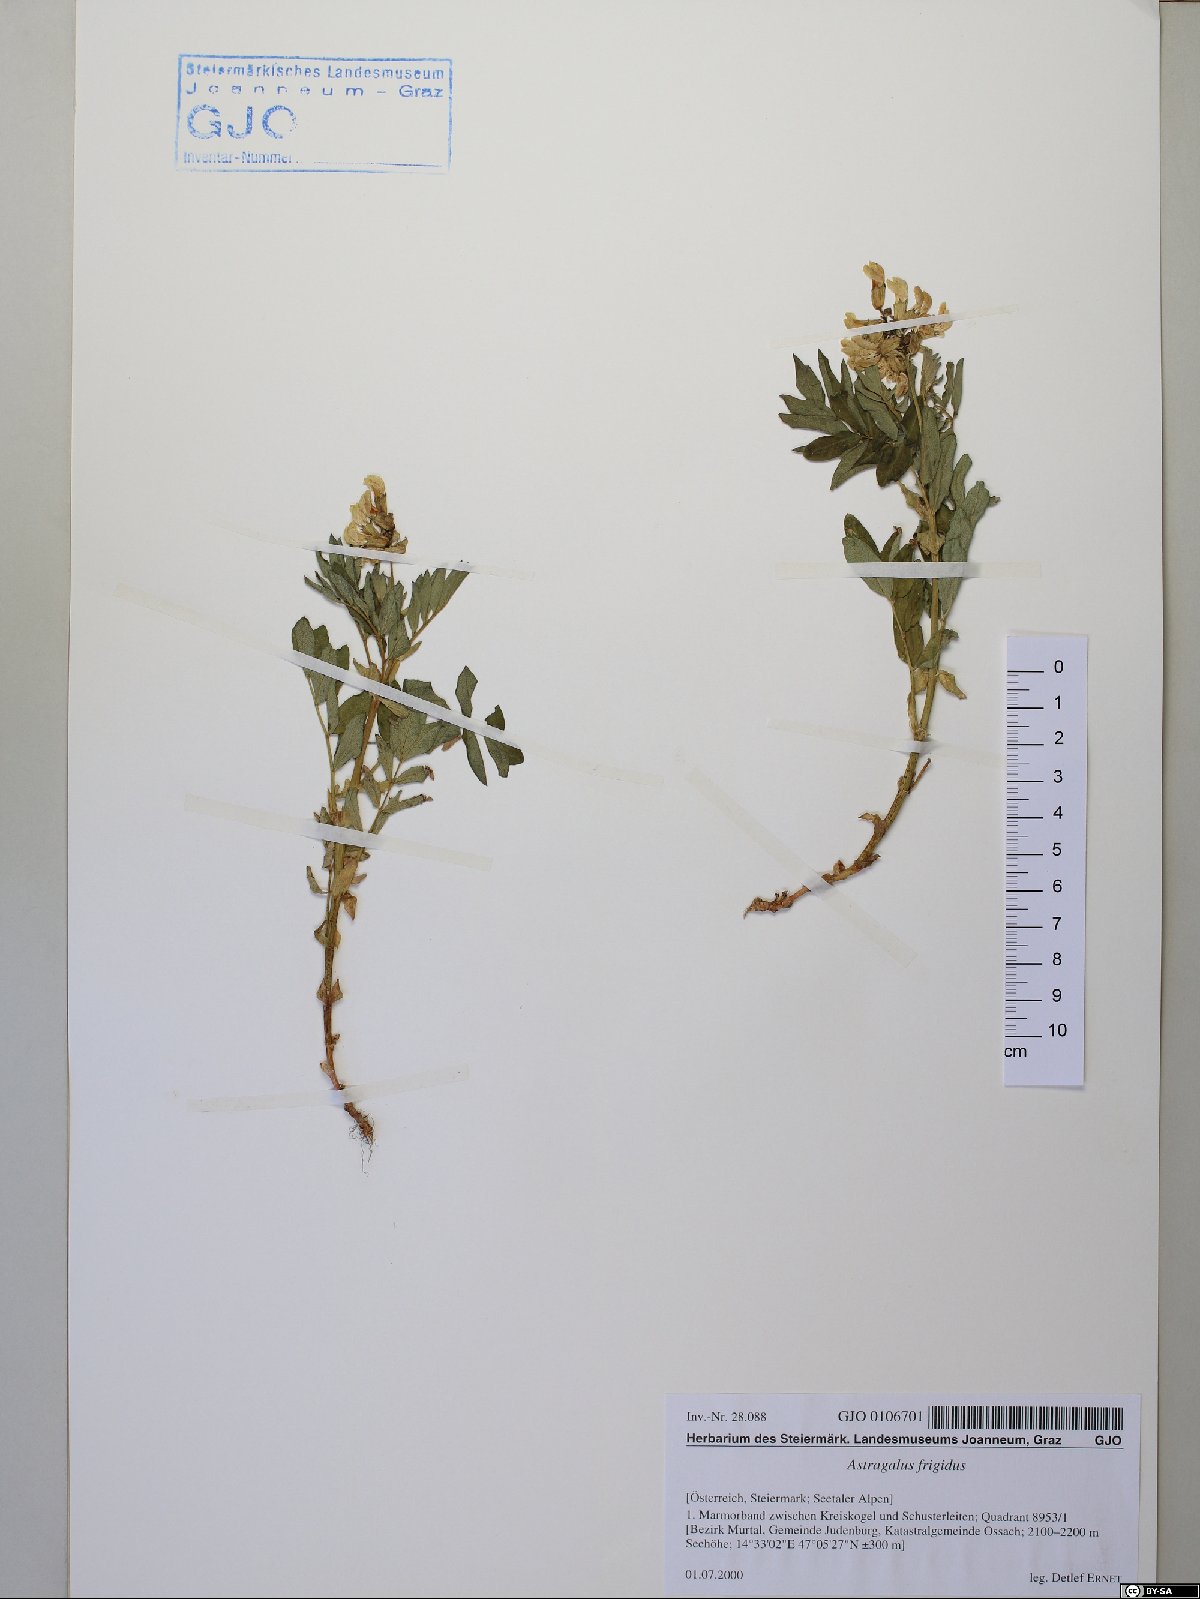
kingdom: Plantae
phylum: Tracheophyta
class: Magnoliopsida
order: Fabales
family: Fabaceae
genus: Astragalus
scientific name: Astragalus frigidus
